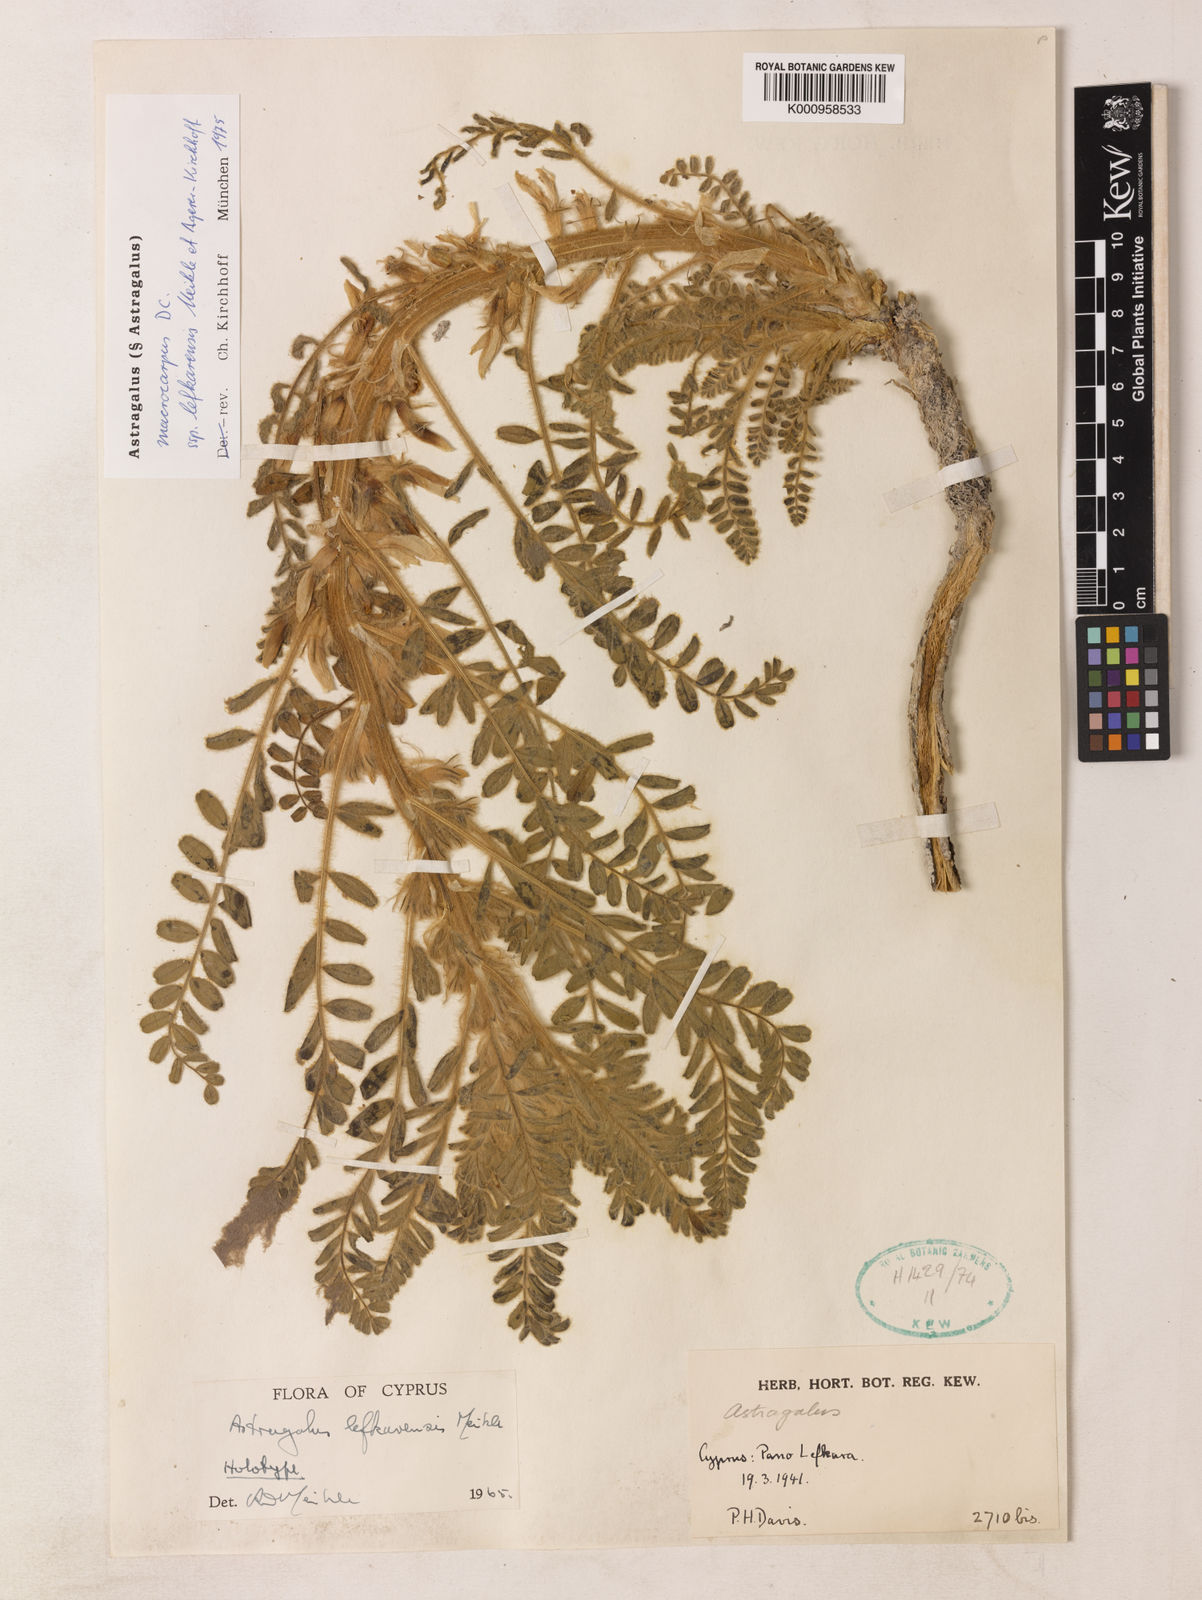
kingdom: Plantae
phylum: Tracheophyta
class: Magnoliopsida
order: Fabales
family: Fabaceae
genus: Astragalus
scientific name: Astragalus macrocarpus
